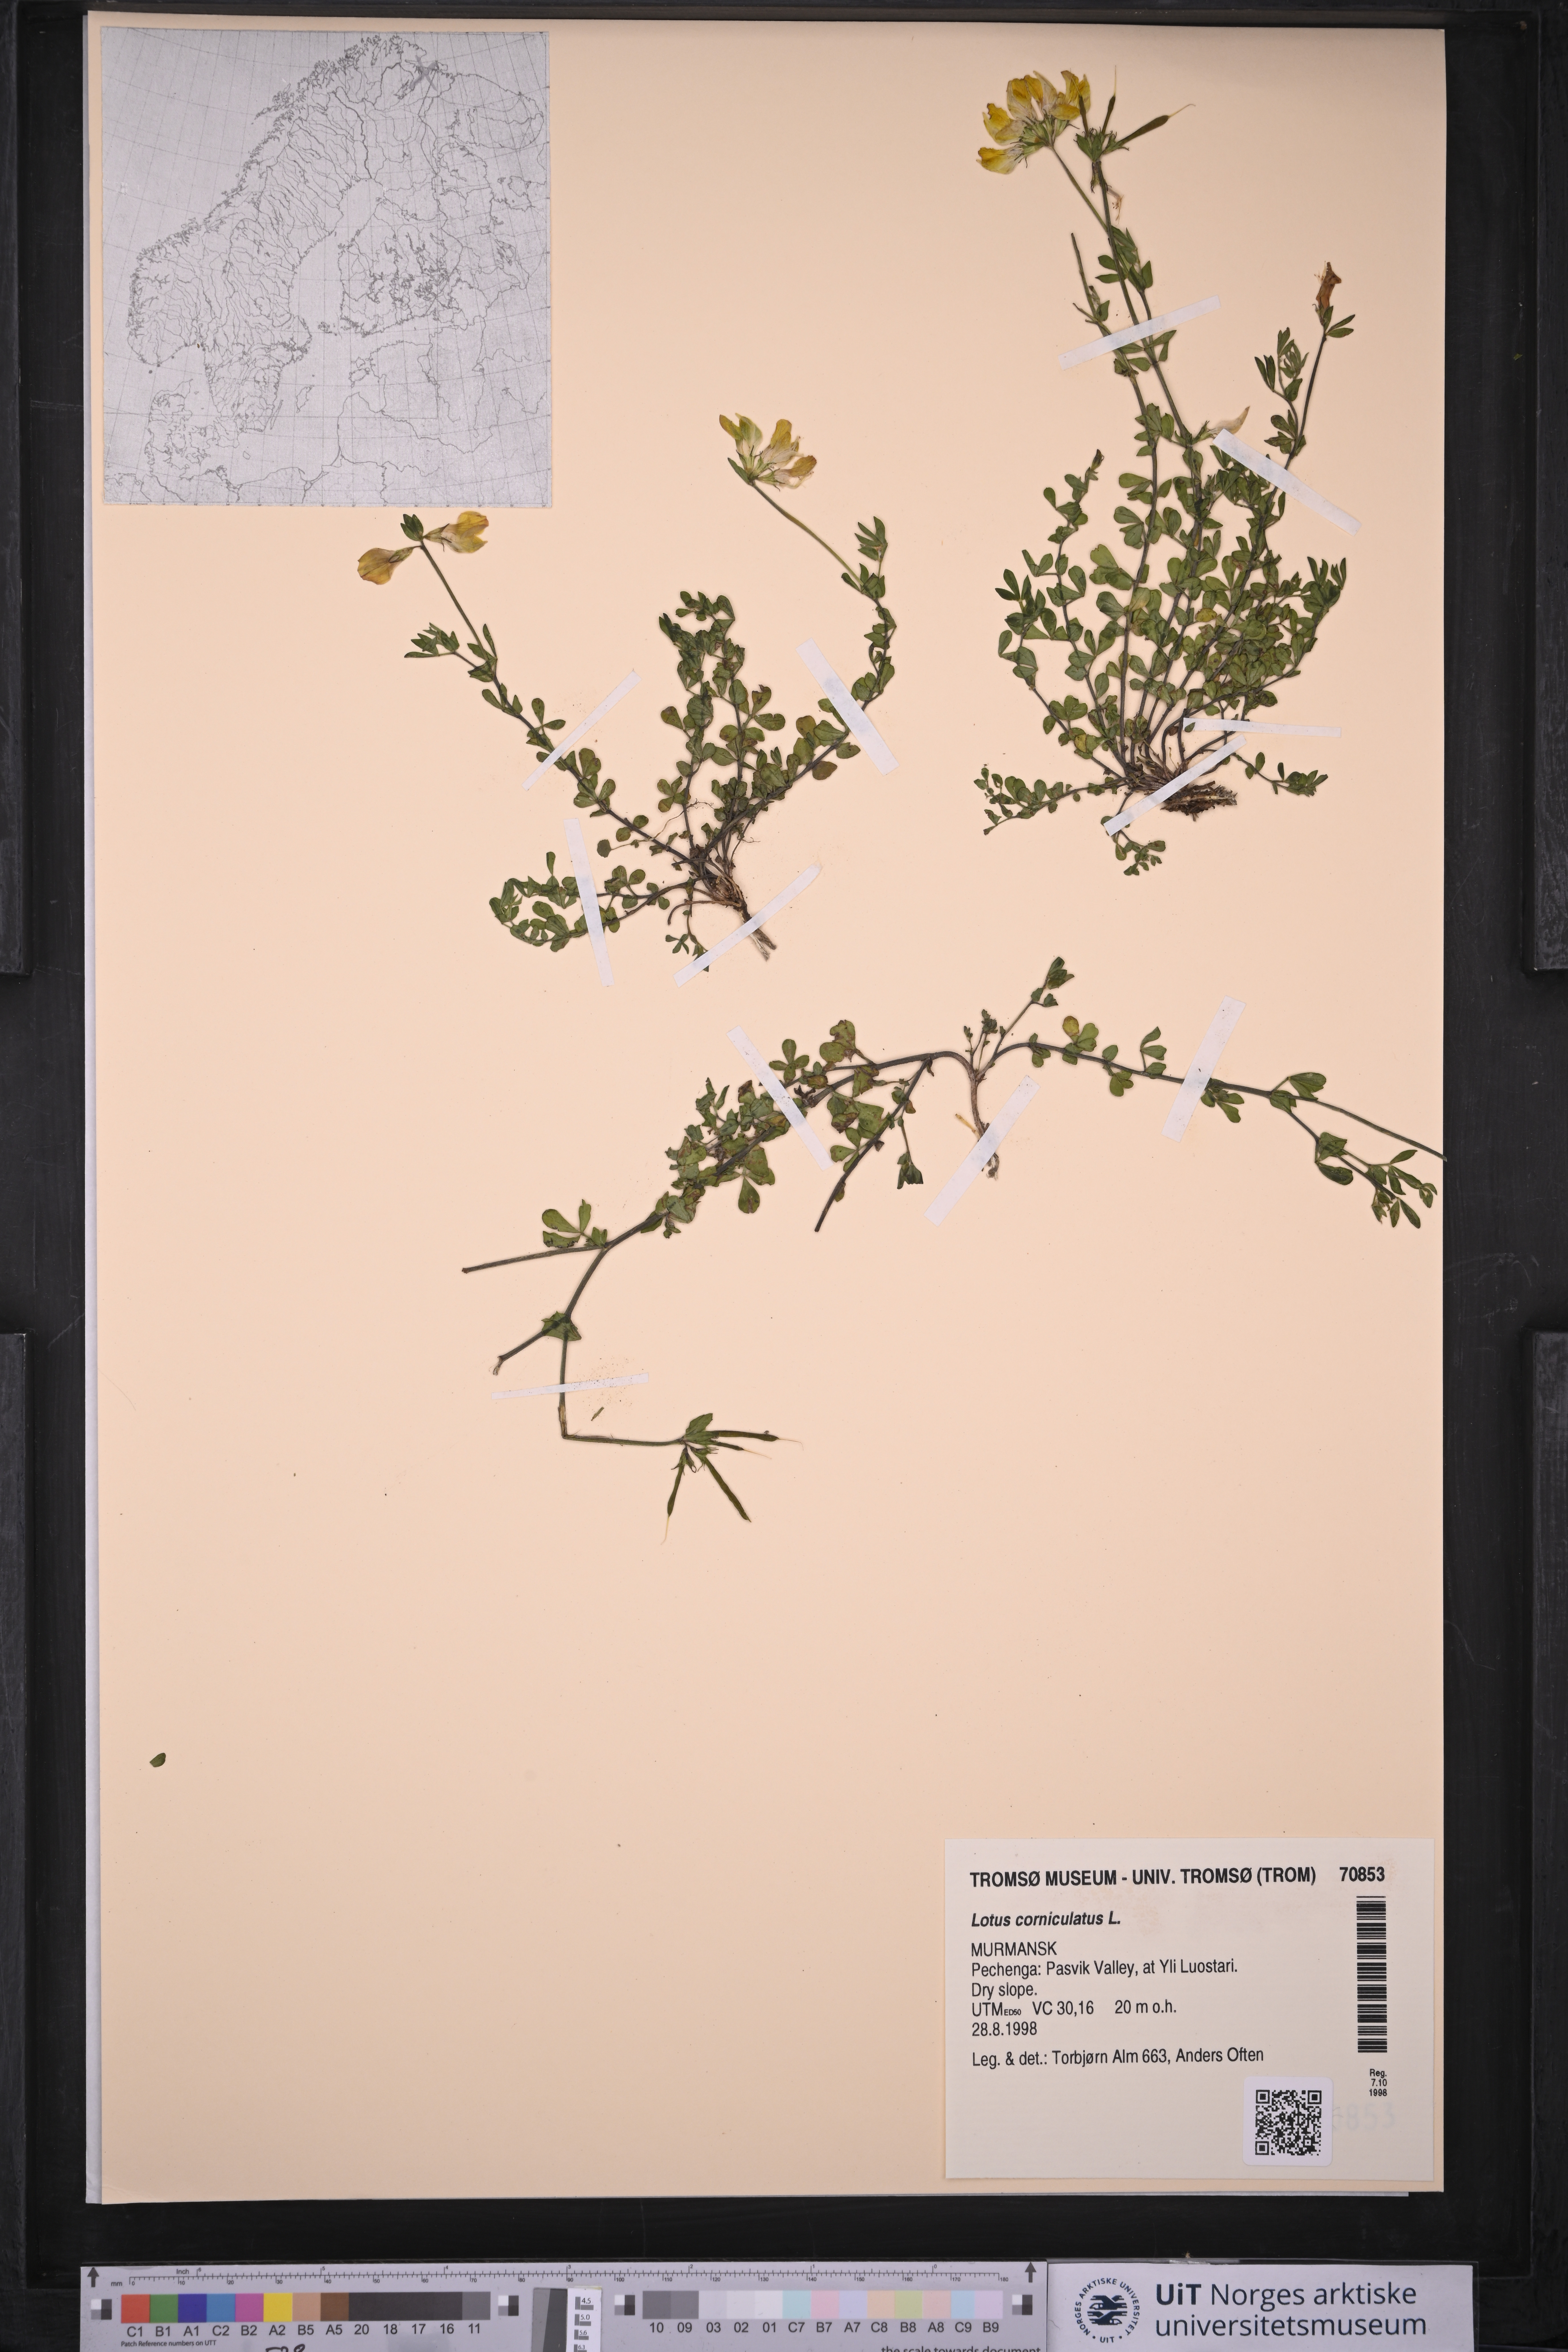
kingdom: Plantae
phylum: Tracheophyta
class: Magnoliopsida
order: Fabales
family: Fabaceae
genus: Lotus
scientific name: Lotus corniculatus
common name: Common bird's-foot-trefoil
